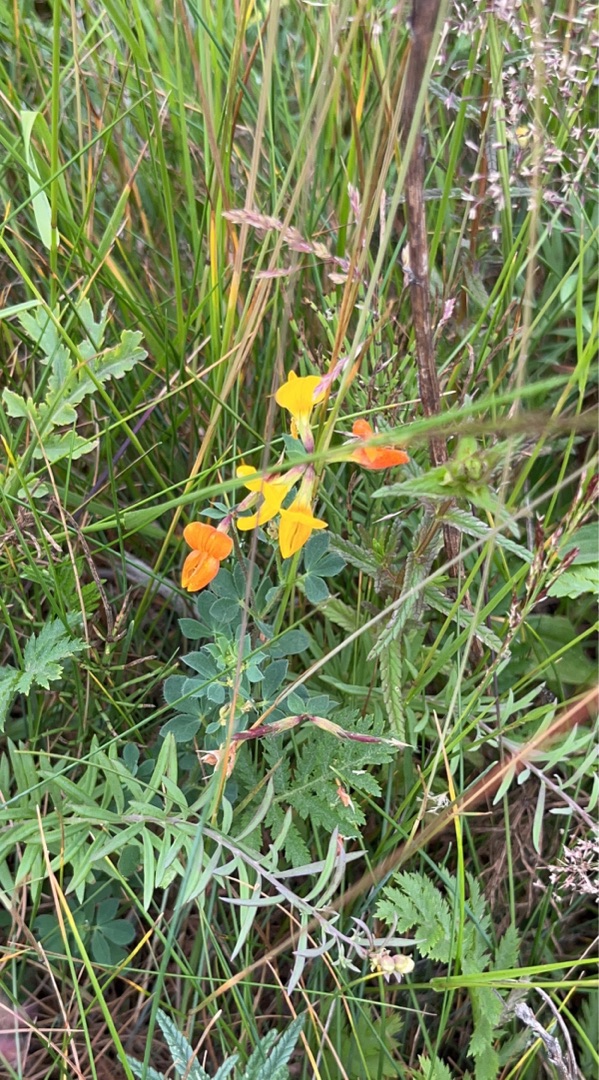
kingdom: Plantae
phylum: Tracheophyta
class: Magnoliopsida
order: Fabales
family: Fabaceae
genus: Lotus
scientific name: Lotus corniculatus
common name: Almindelig kællingetand
